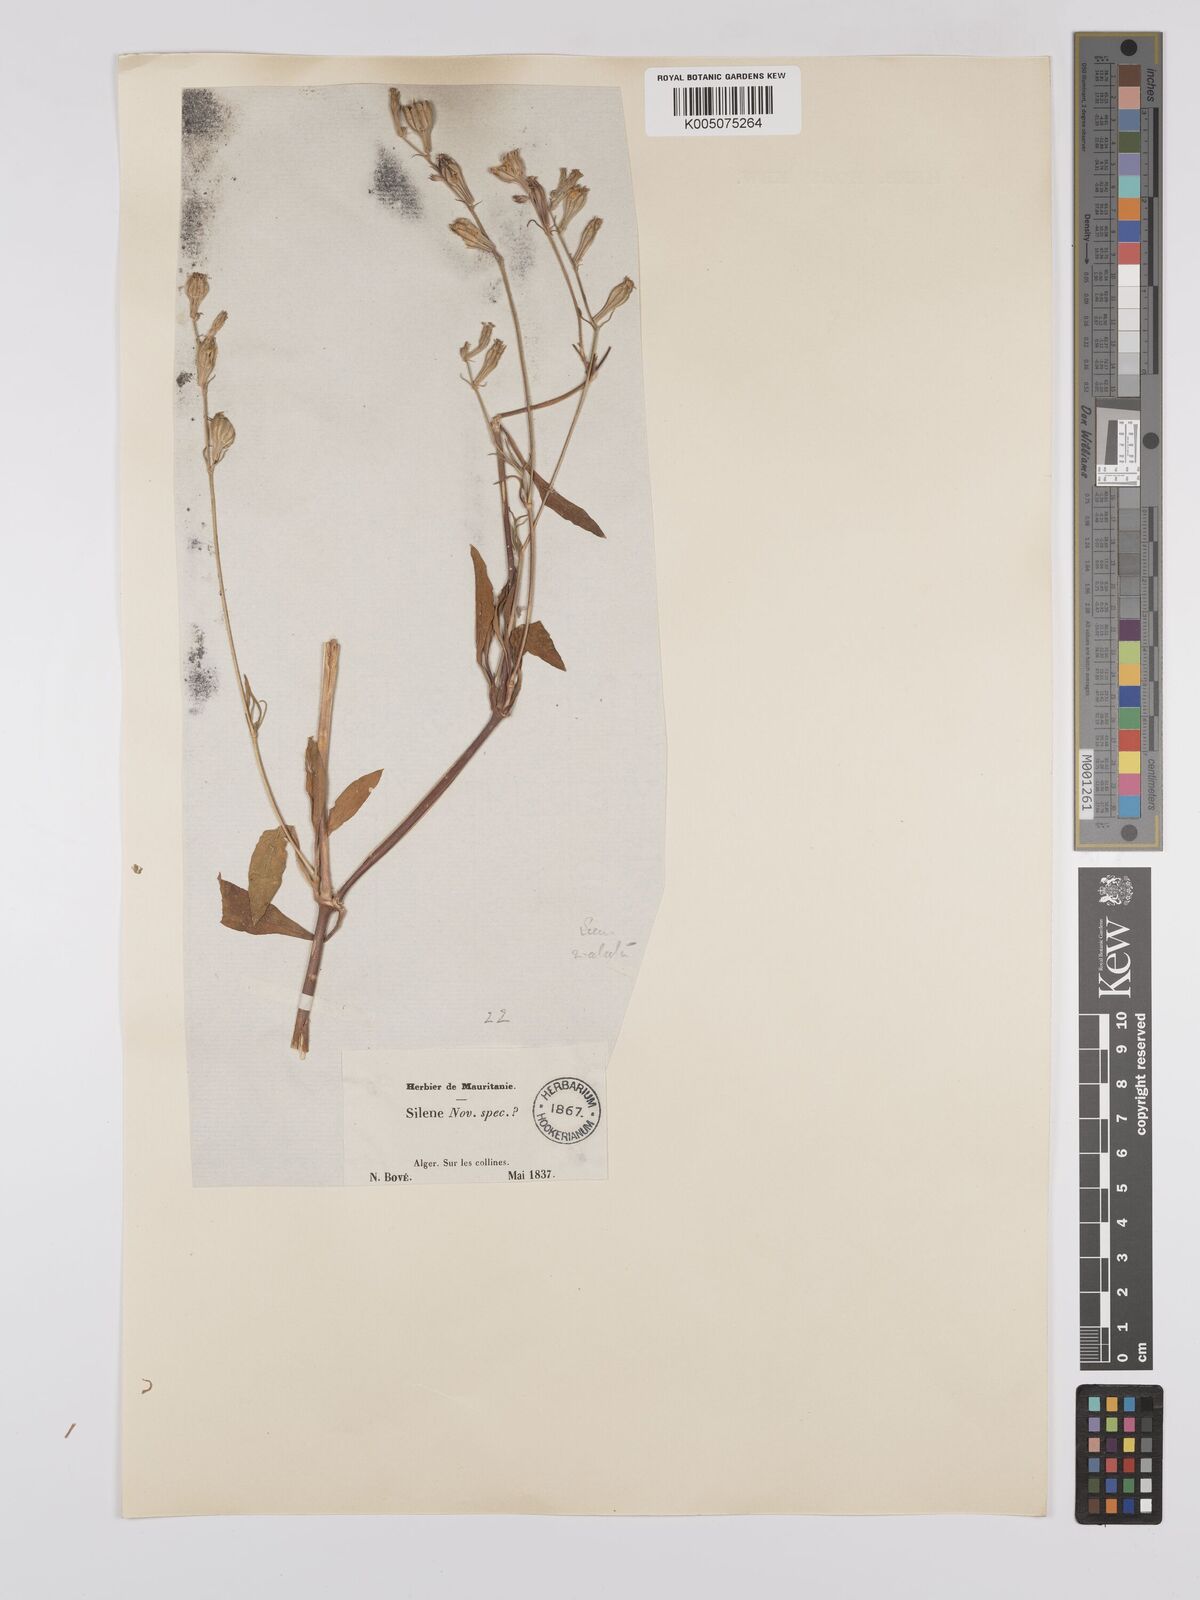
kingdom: Plantae
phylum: Tracheophyta
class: Magnoliopsida
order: Caryophyllales
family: Caryophyllaceae
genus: Silene
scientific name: Silene secundiflora
